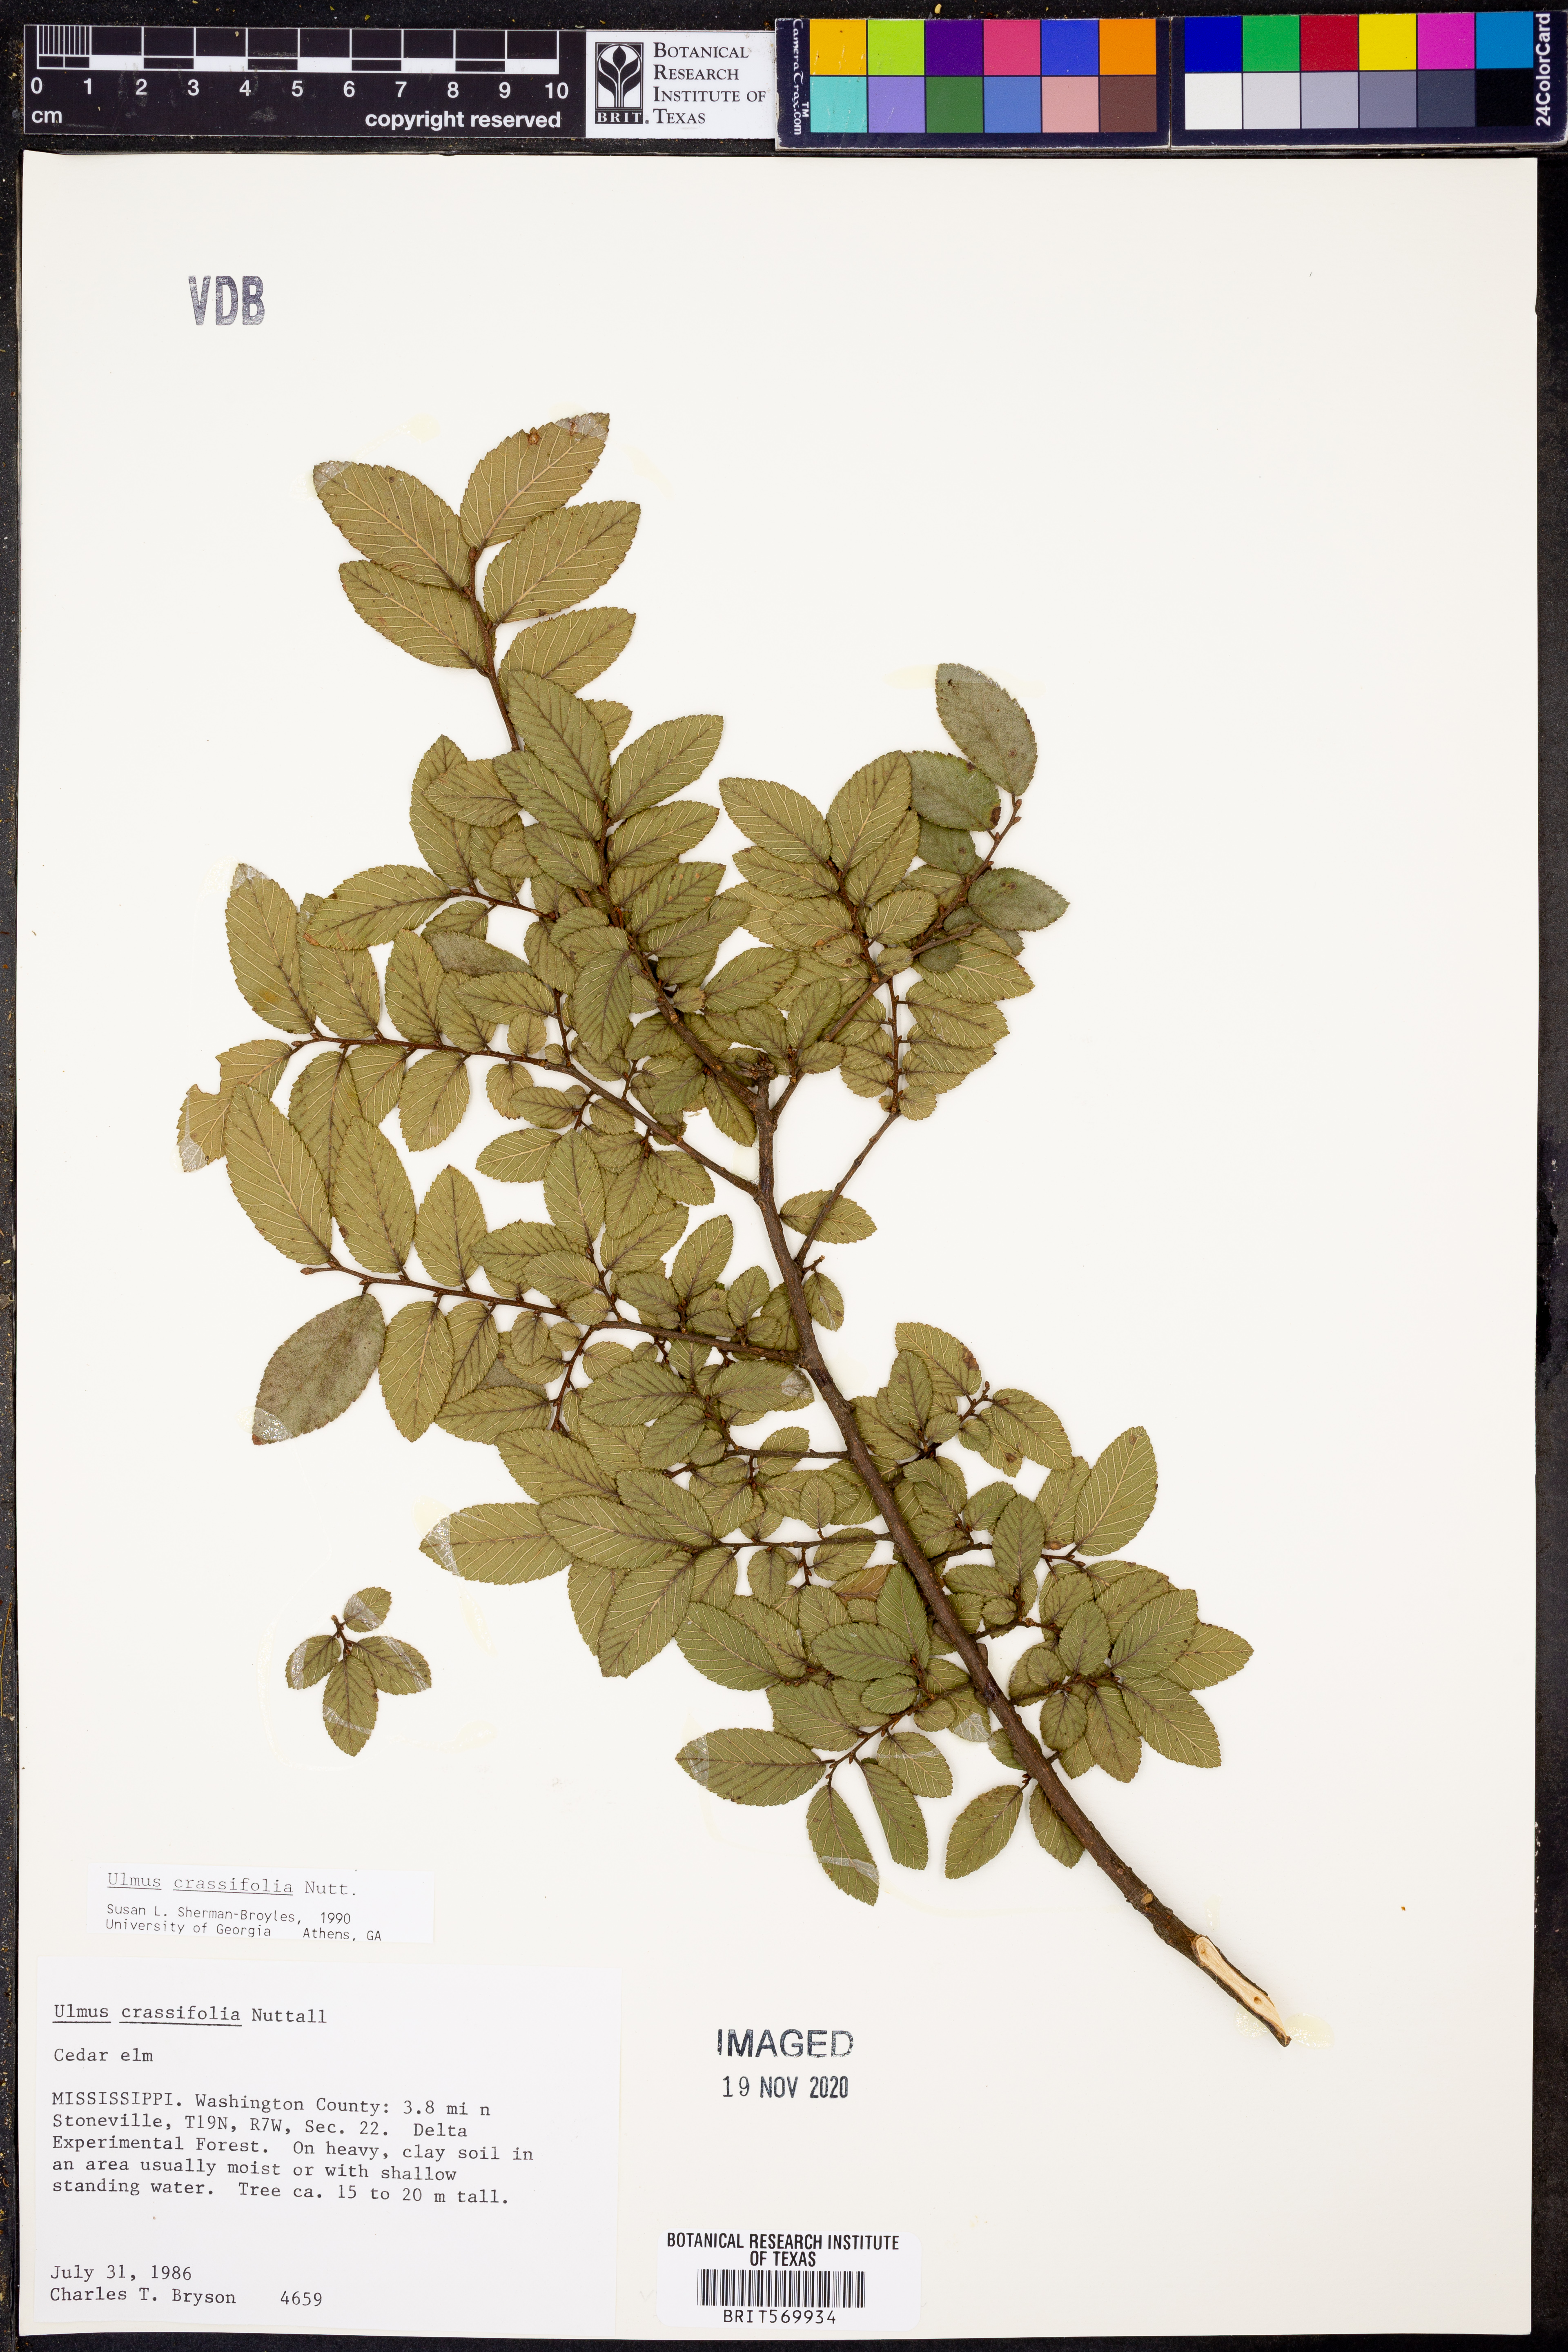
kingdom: Plantae
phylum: Tracheophyta
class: Magnoliopsida
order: Rosales
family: Ulmaceae
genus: Ulmus
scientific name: Ulmus crassifolia
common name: Basket elm
